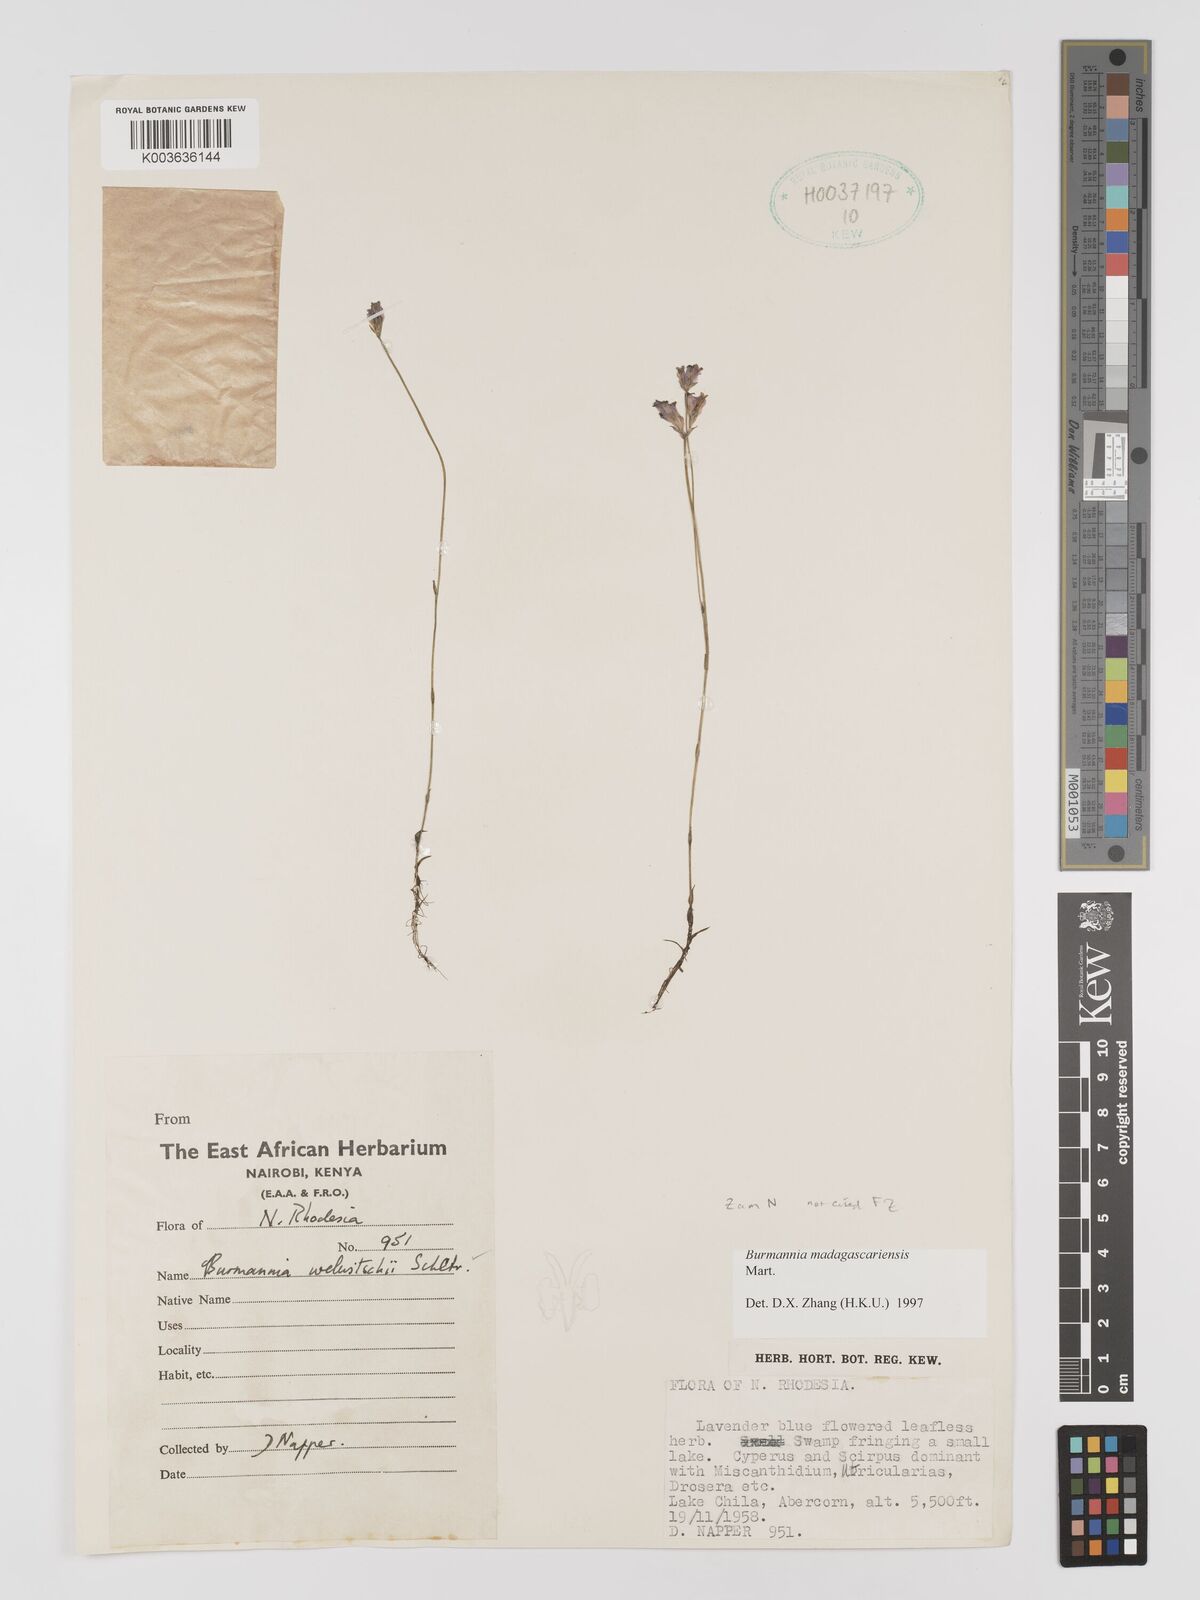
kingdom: Plantae
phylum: Tracheophyta
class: Liliopsida
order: Dioscoreales
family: Burmanniaceae
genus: Burmannia
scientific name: Burmannia madagascariensis
